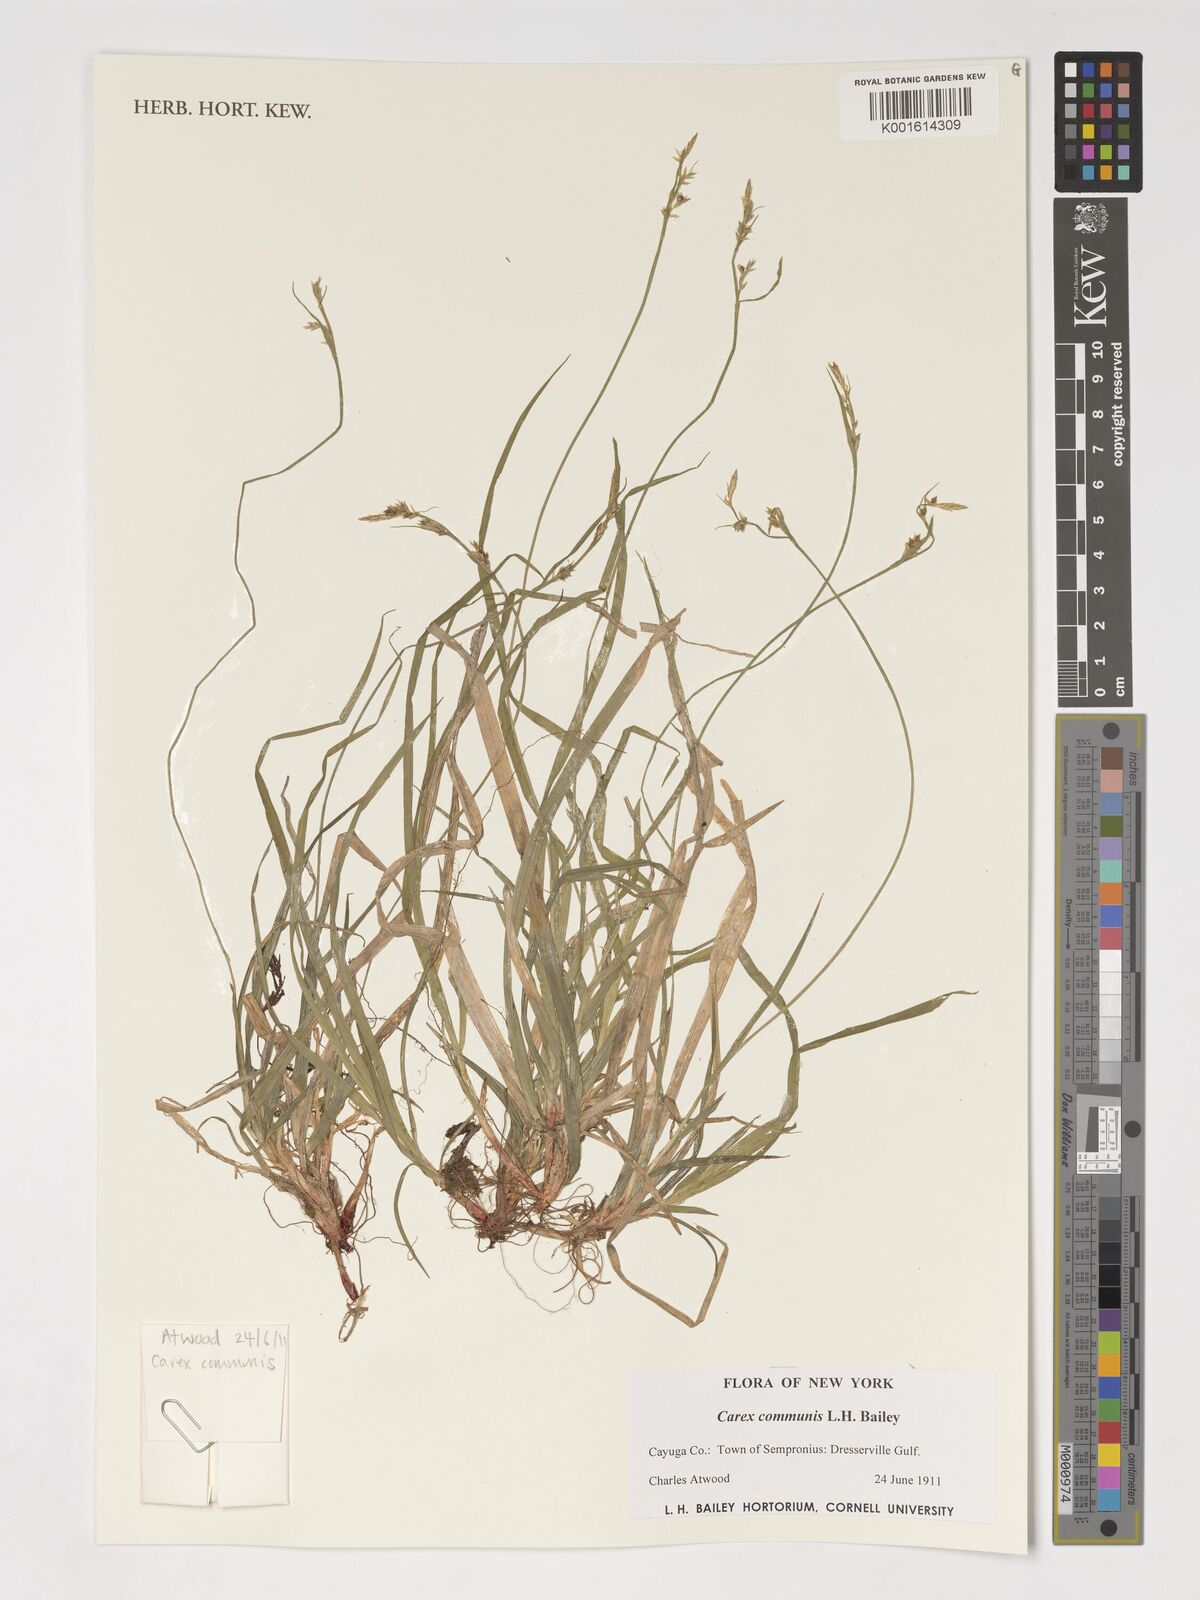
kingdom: Plantae
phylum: Tracheophyta
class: Liliopsida
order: Poales
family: Cyperaceae
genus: Carex
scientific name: Carex communis
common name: Colonial oak sedge
